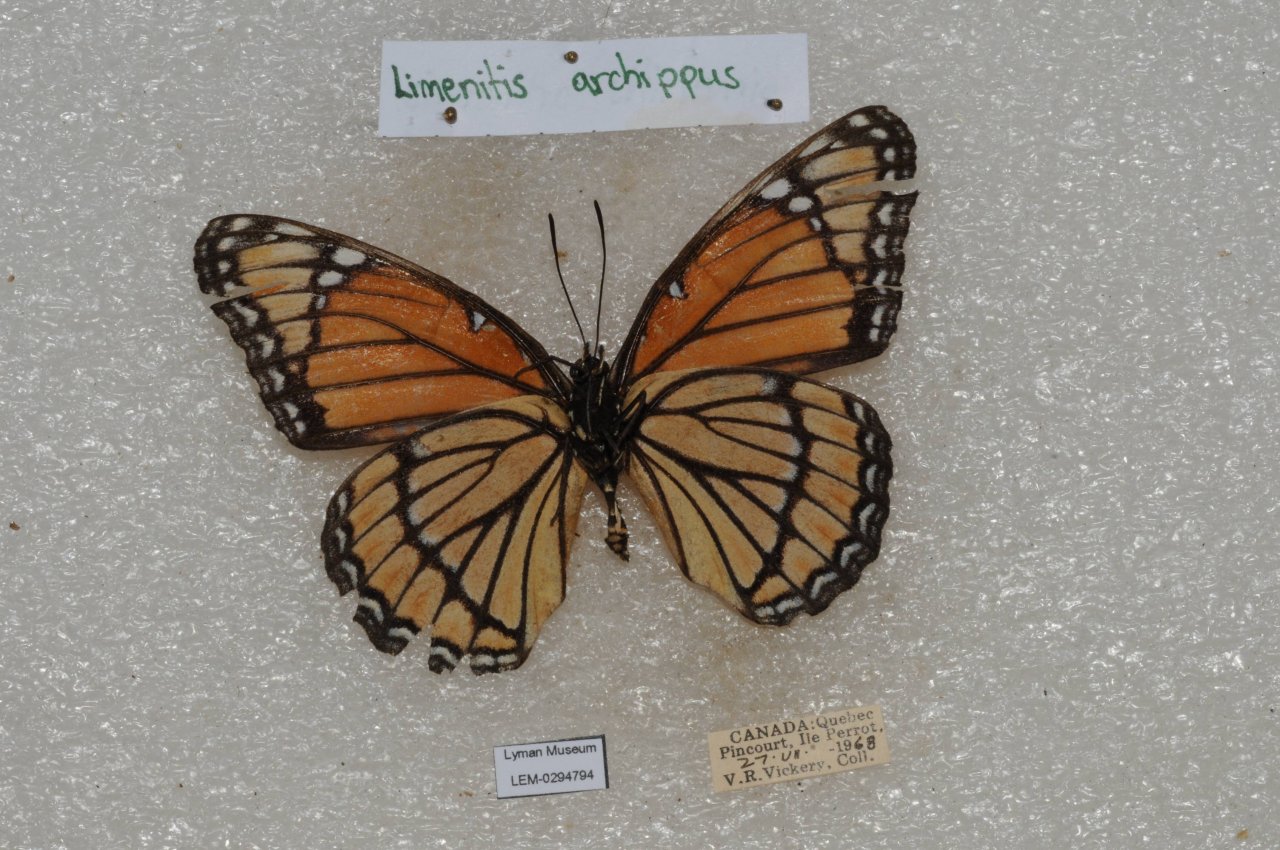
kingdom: Animalia
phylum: Arthropoda
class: Insecta
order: Lepidoptera
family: Nymphalidae
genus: Limenitis
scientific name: Limenitis archippus
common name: Viceroy
